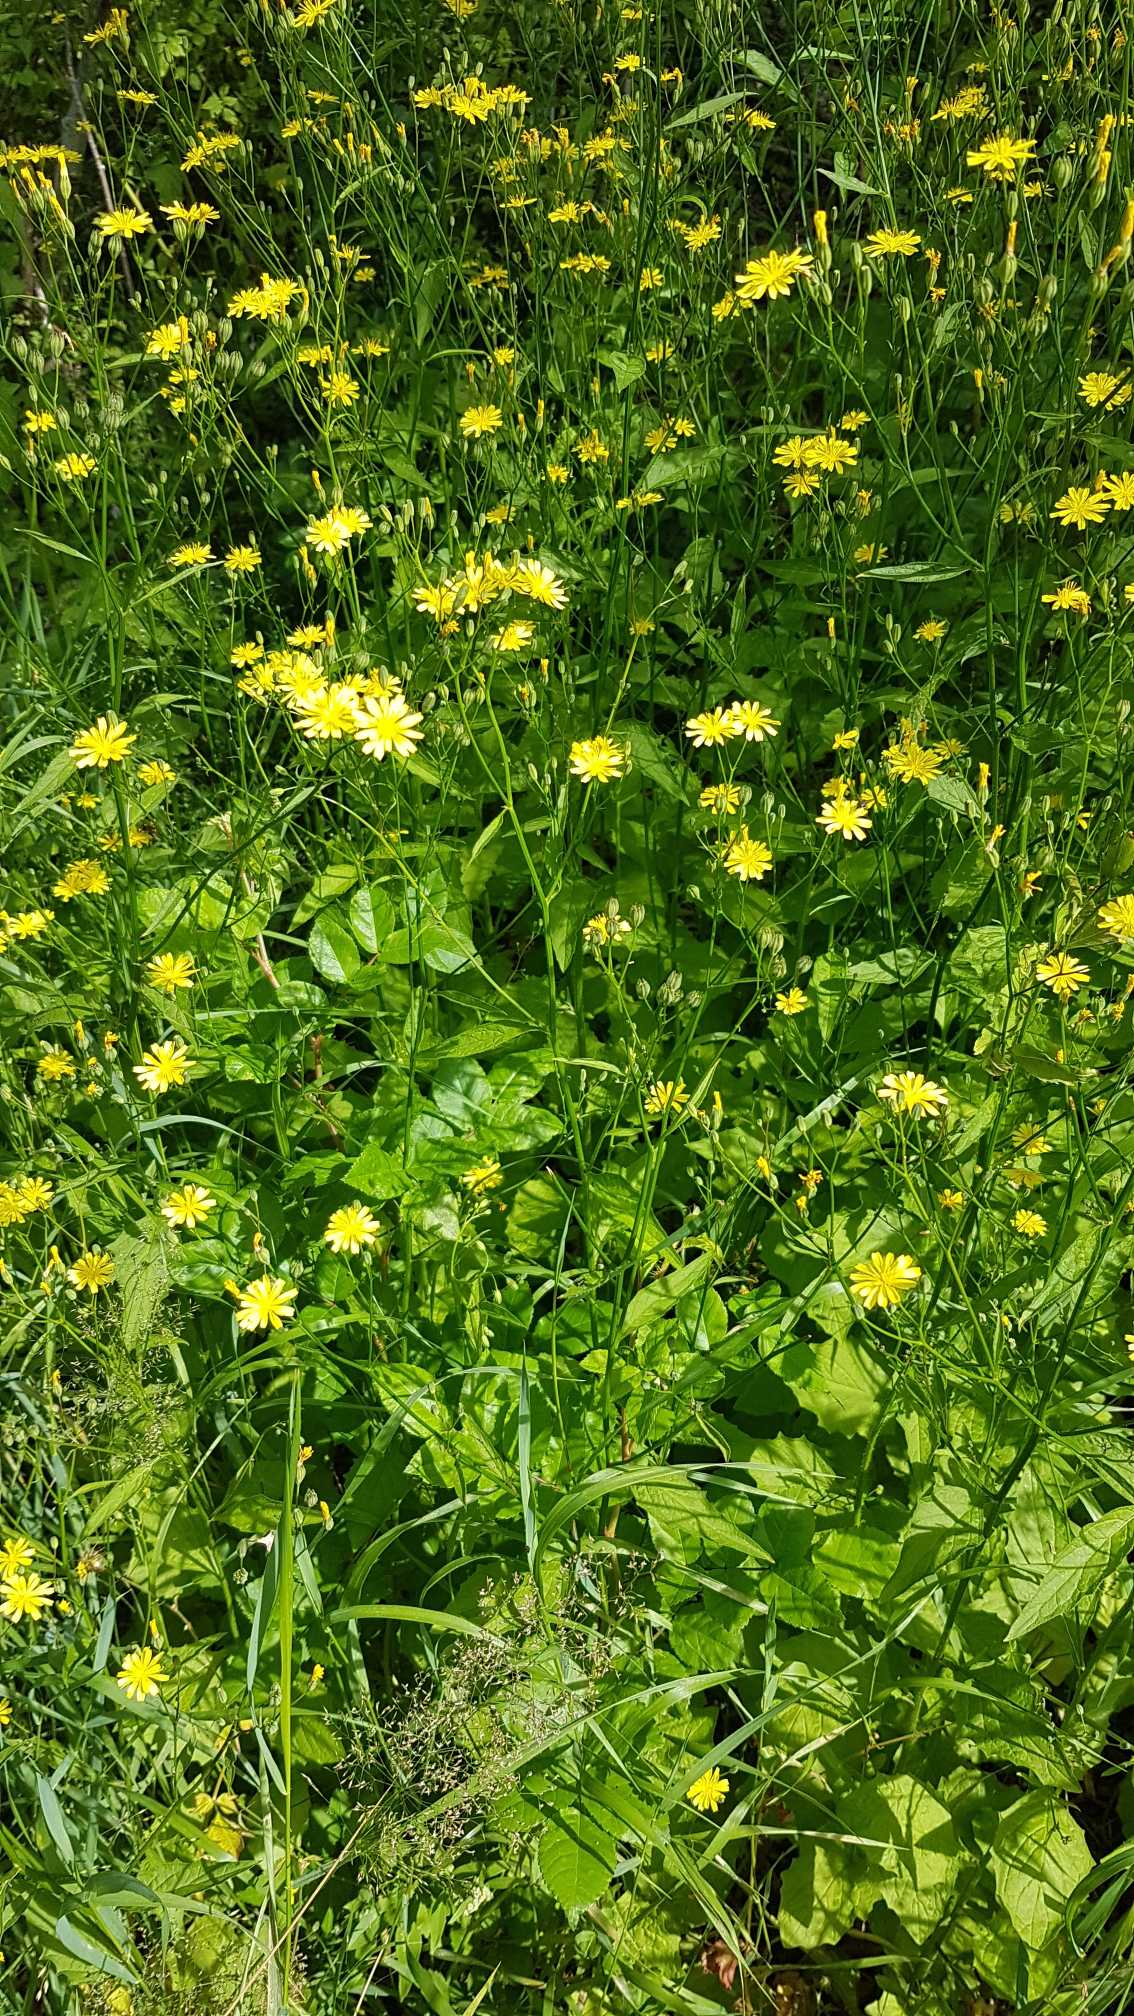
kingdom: Plantae
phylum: Tracheophyta
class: Magnoliopsida
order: Asterales
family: Asteraceae
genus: Lapsana
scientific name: Lapsana communis
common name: Haremad
